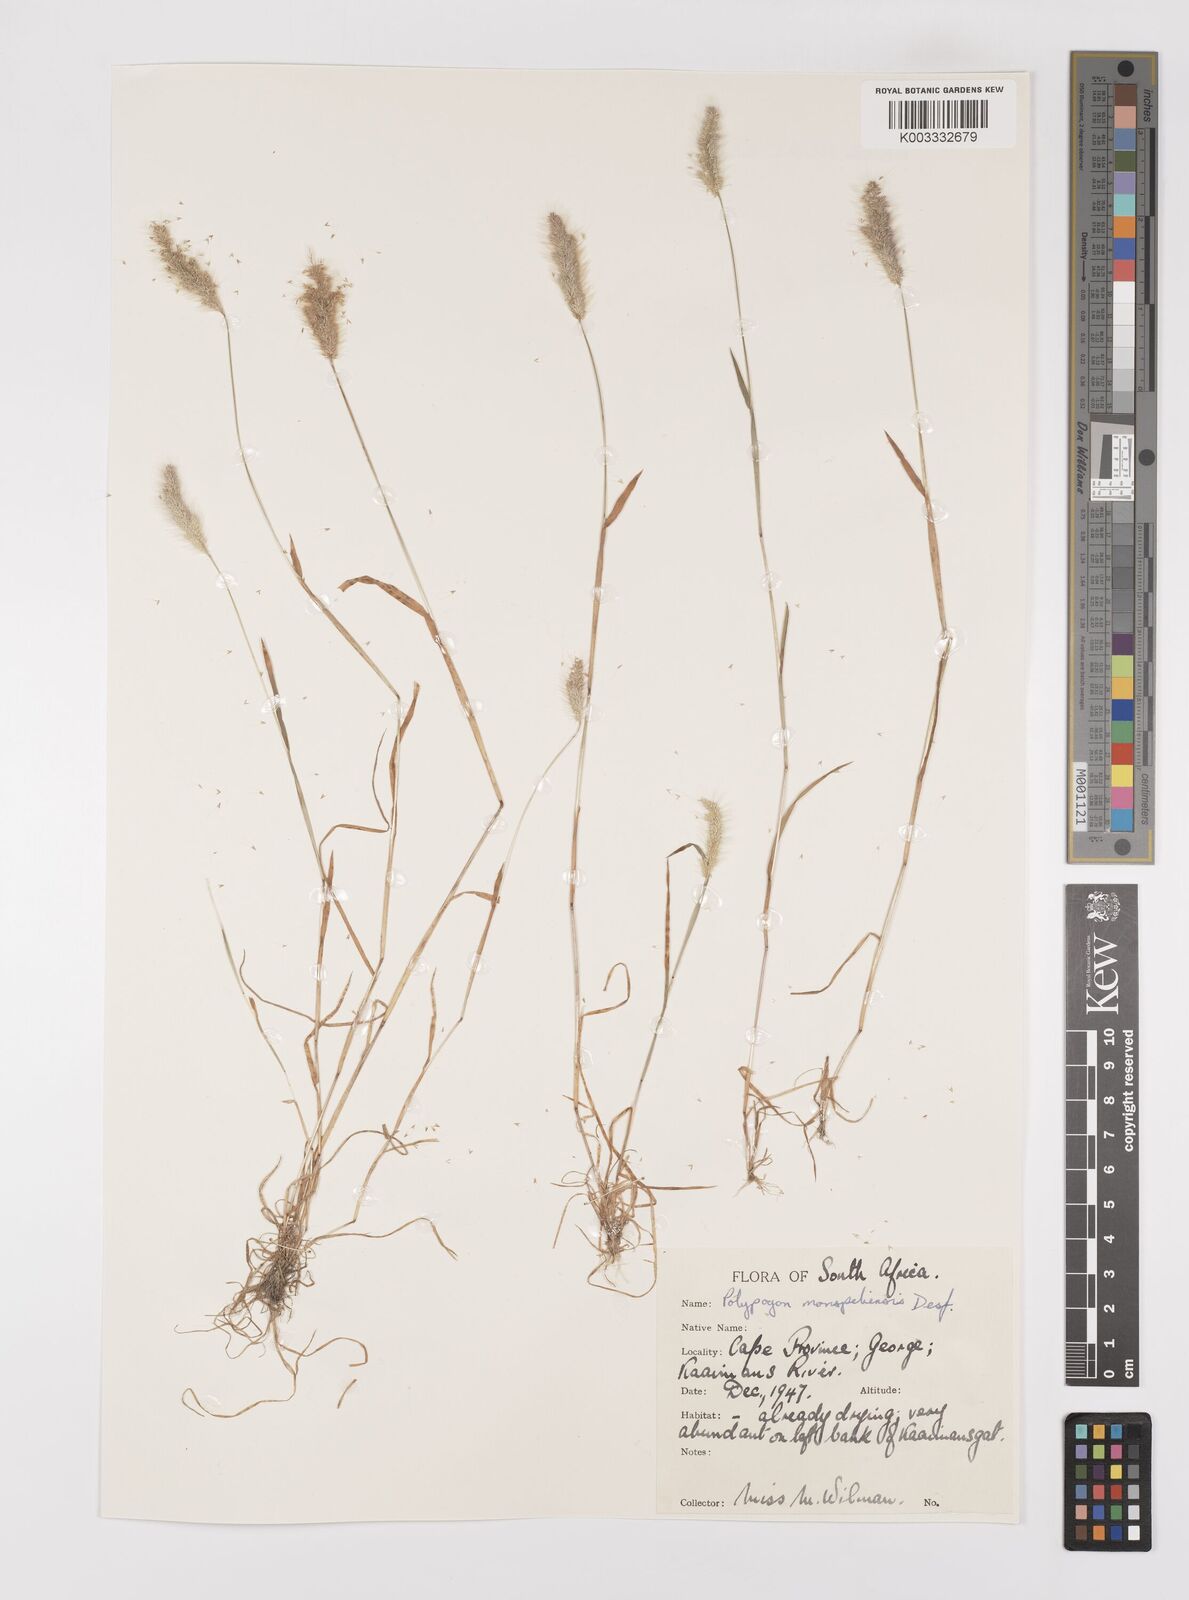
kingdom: Plantae
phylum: Tracheophyta
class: Liliopsida
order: Poales
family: Poaceae
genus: Polypogon
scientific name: Polypogon monspeliensis
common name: Annual rabbitsfoot grass
